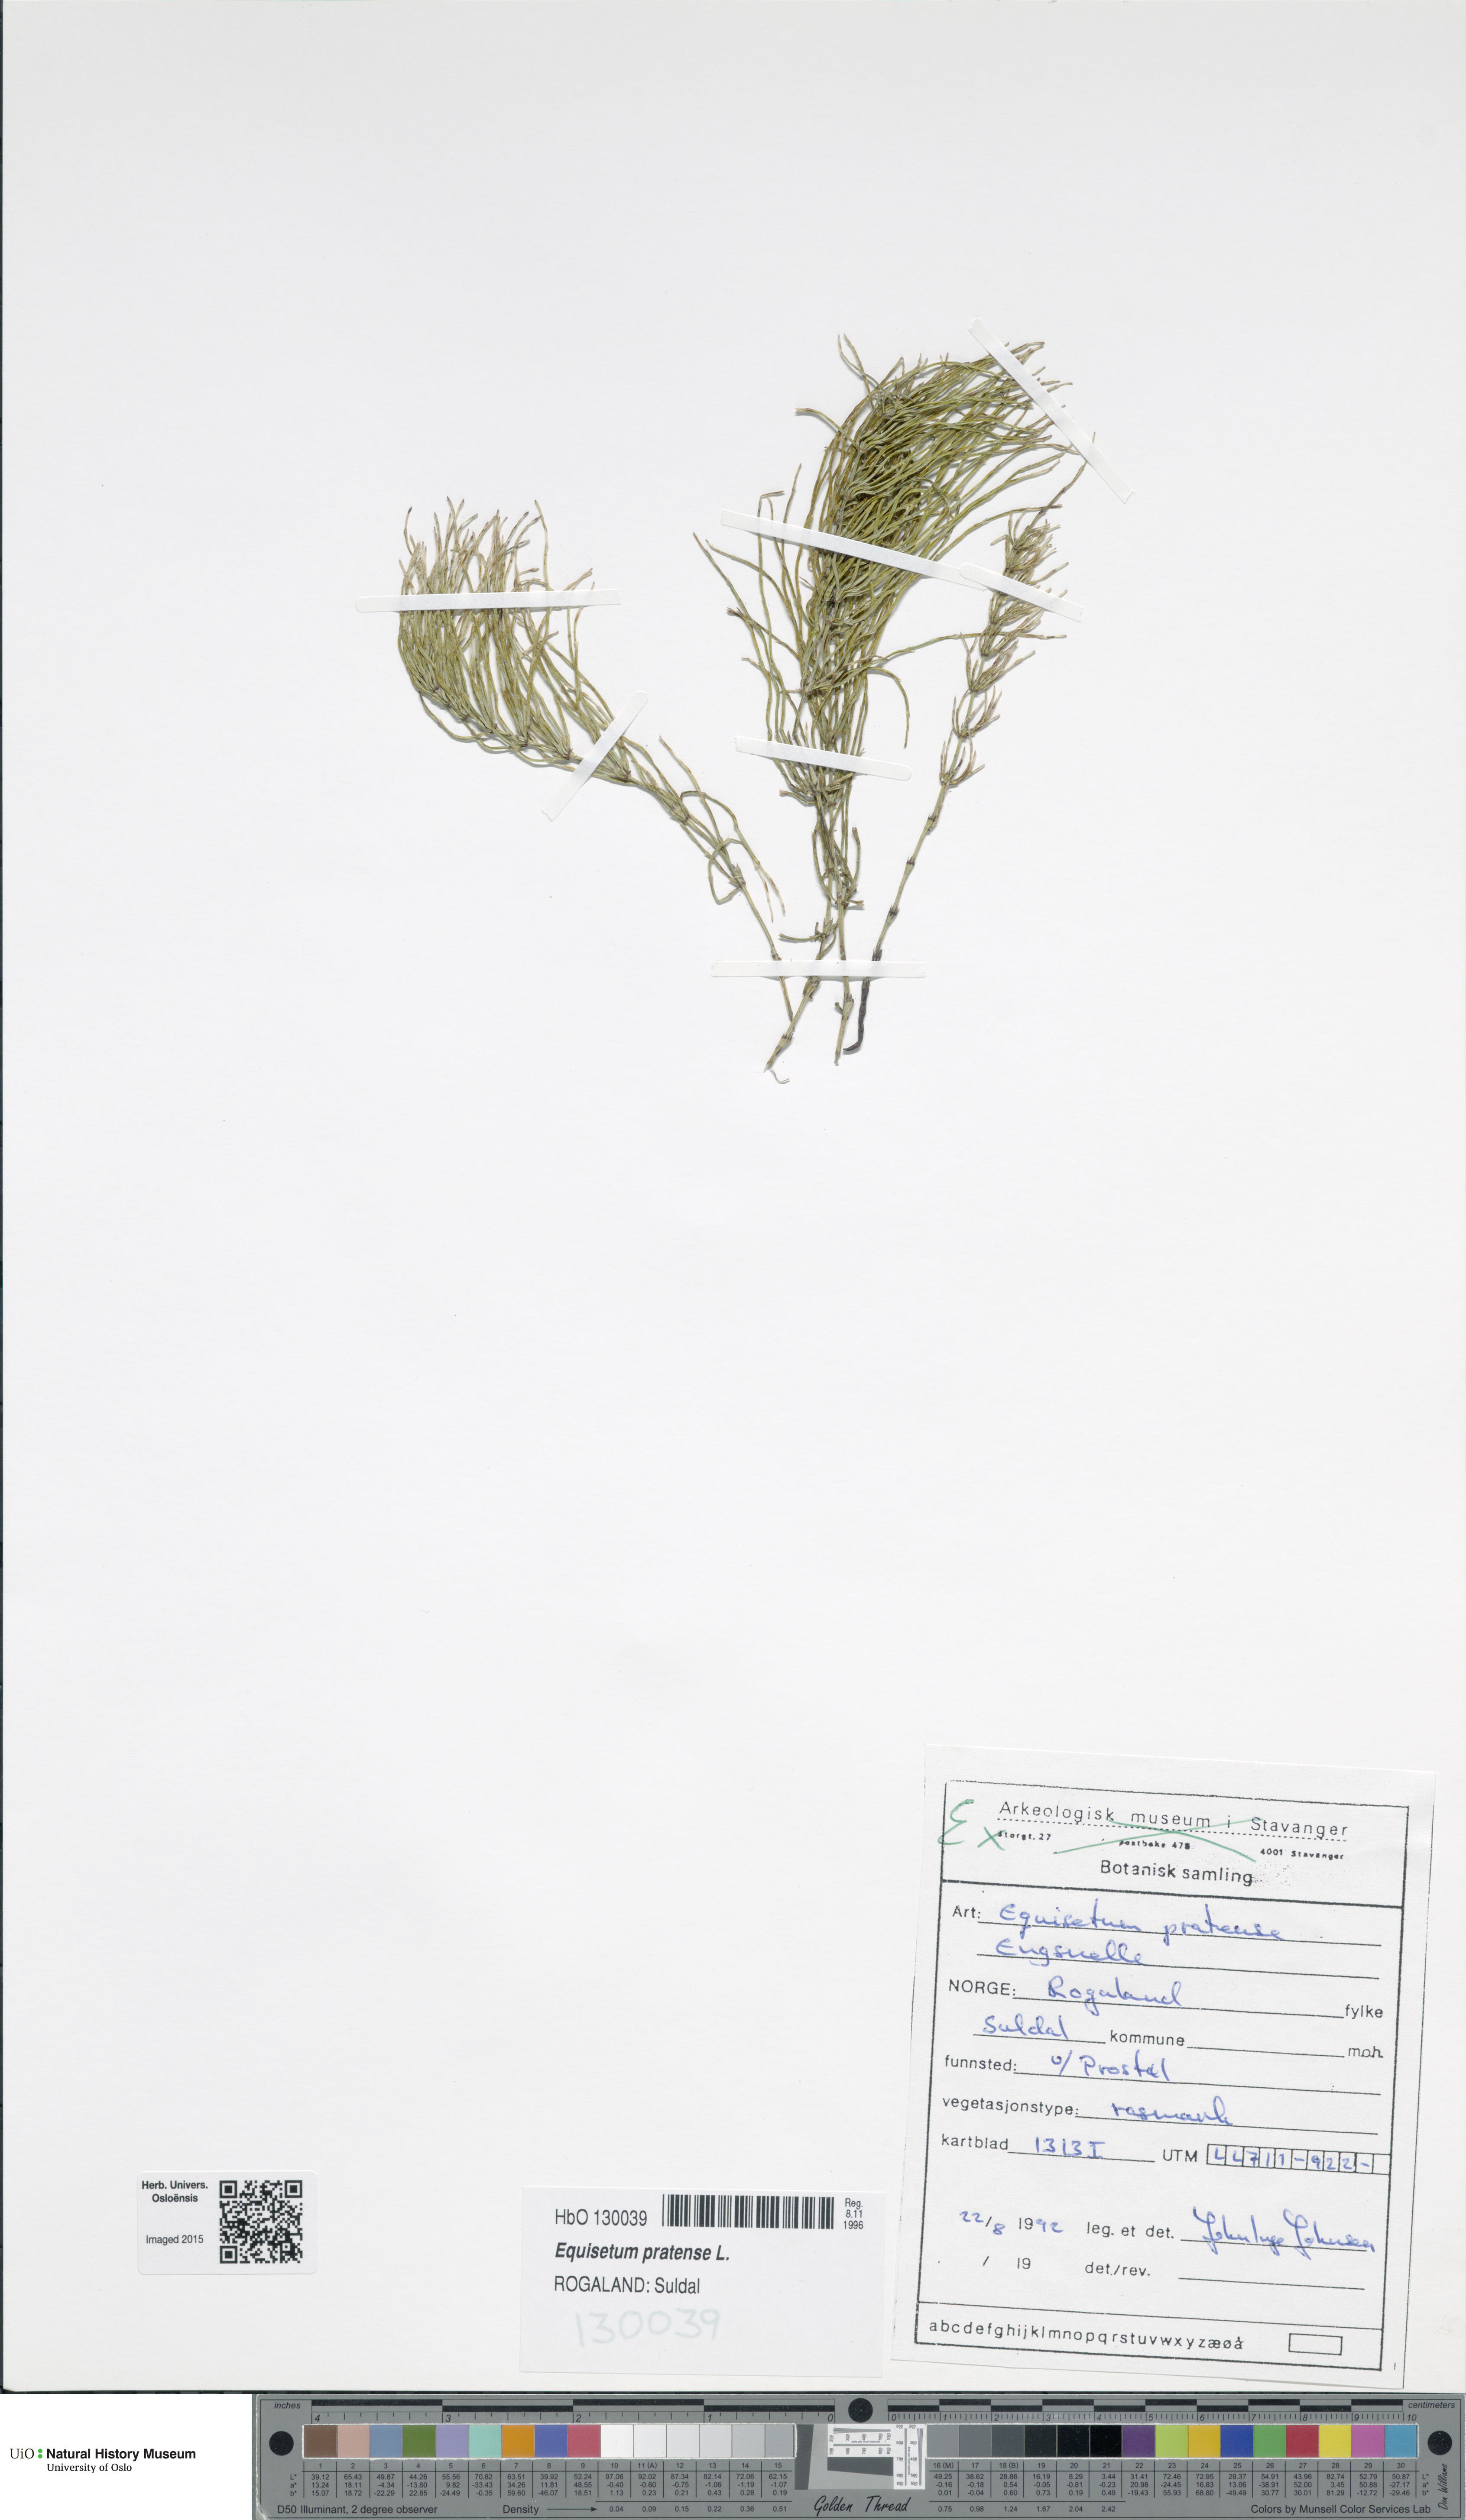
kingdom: Plantae
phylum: Tracheophyta
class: Polypodiopsida
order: Equisetales
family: Equisetaceae
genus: Equisetum
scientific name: Equisetum pratense
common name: Meadow horsetail
